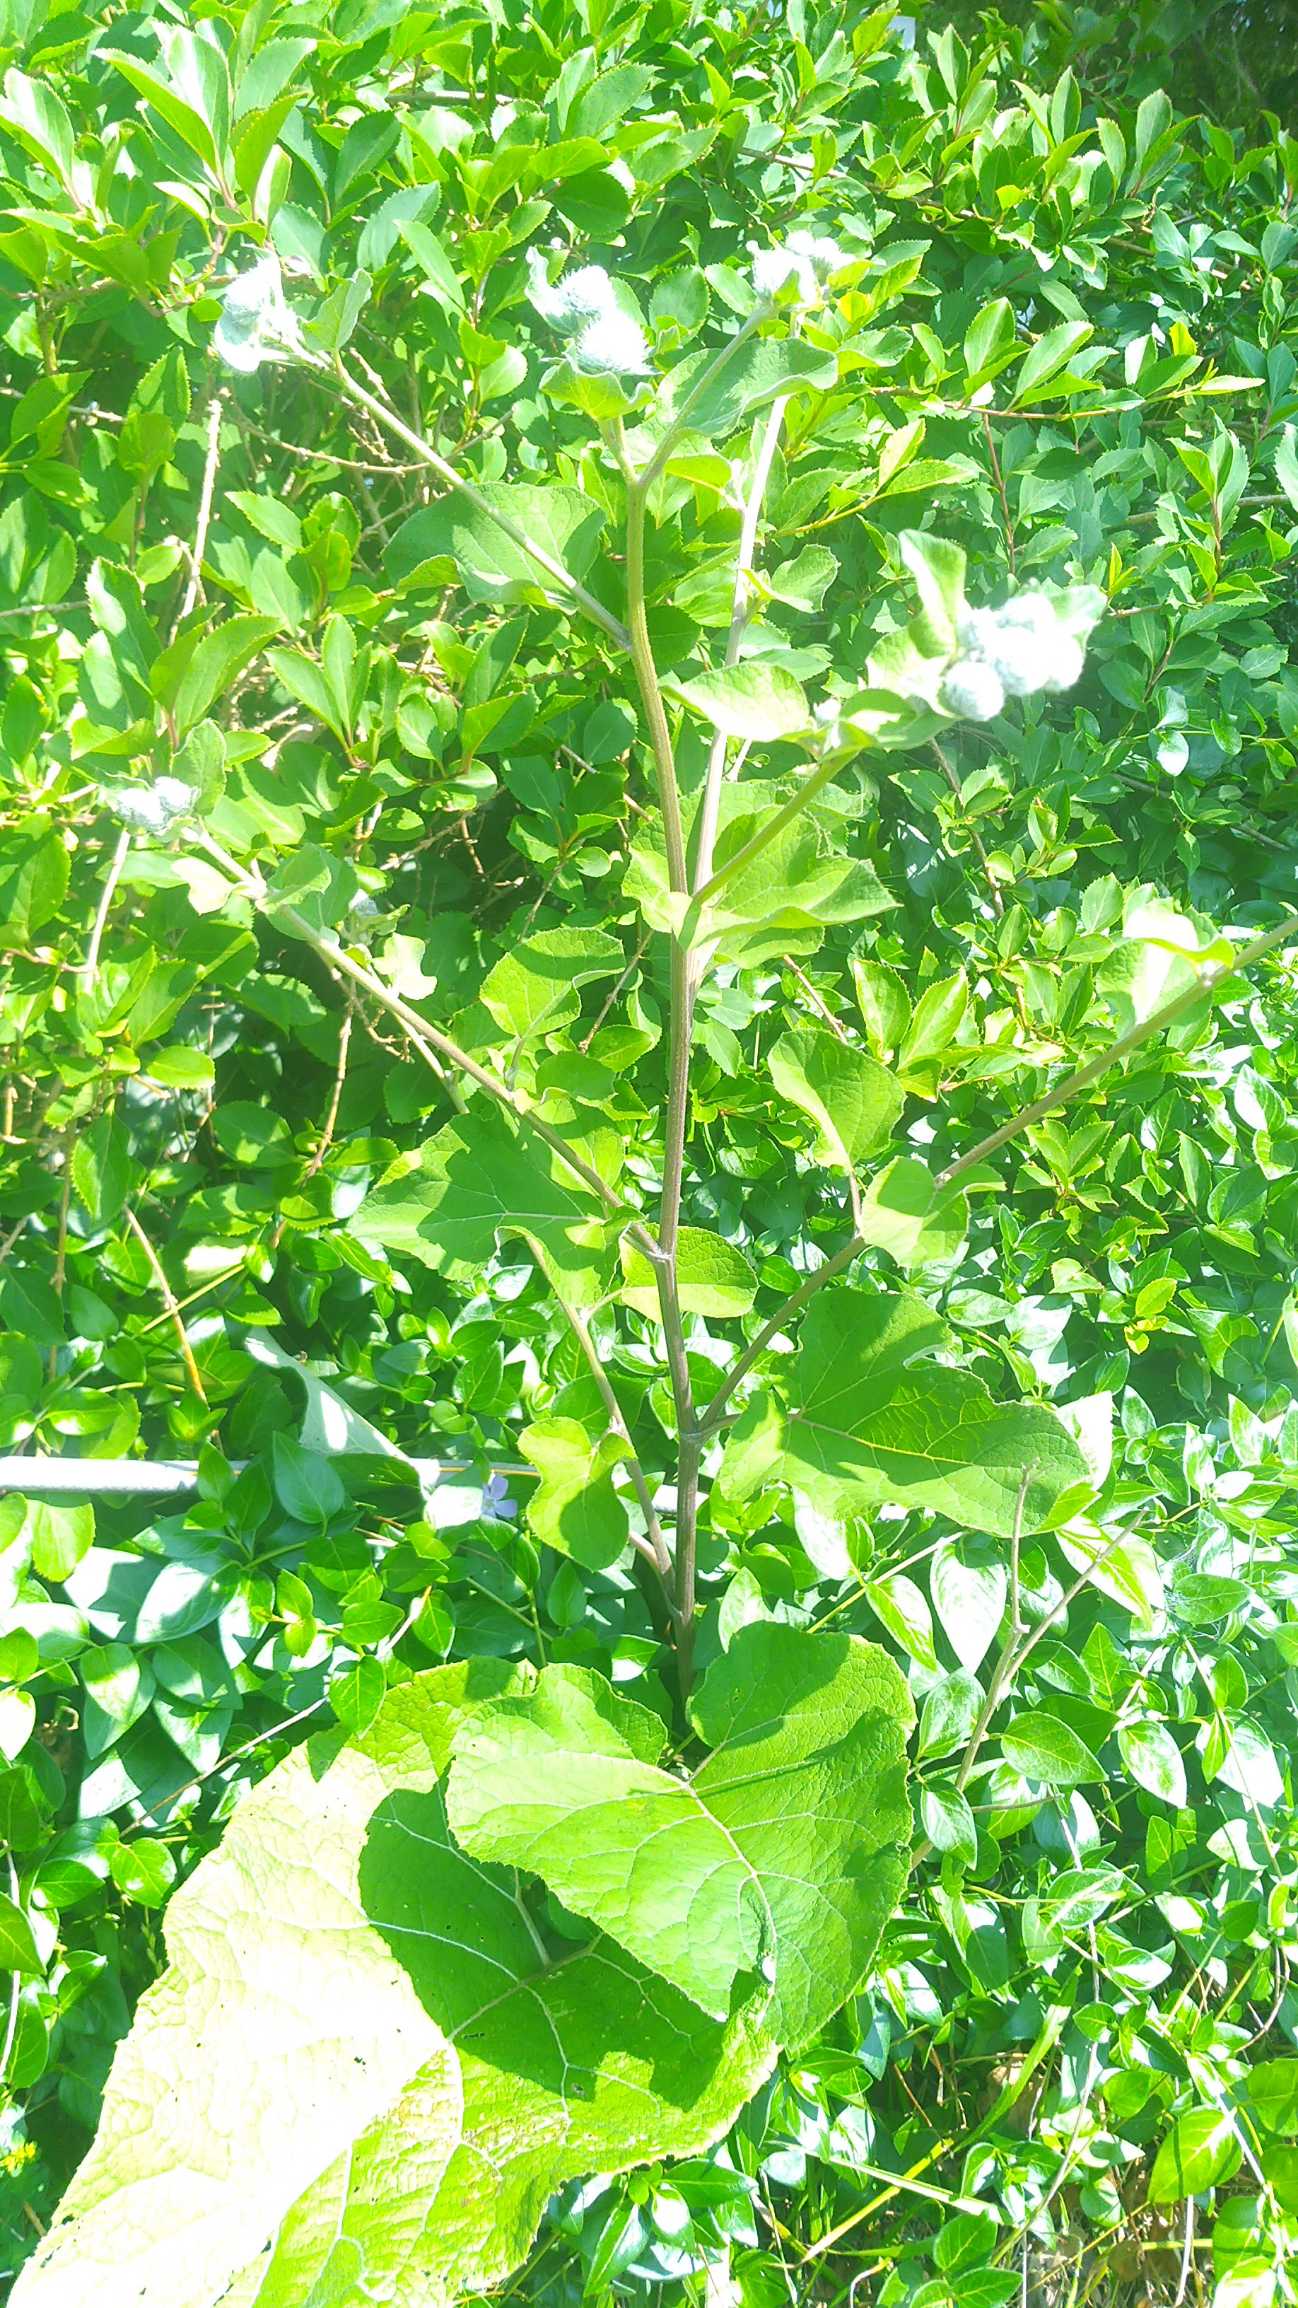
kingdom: Plantae
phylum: Tracheophyta
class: Magnoliopsida
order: Asterales
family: Asteraceae
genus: Arctium
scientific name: Arctium tomentosum
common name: Filtet burre
